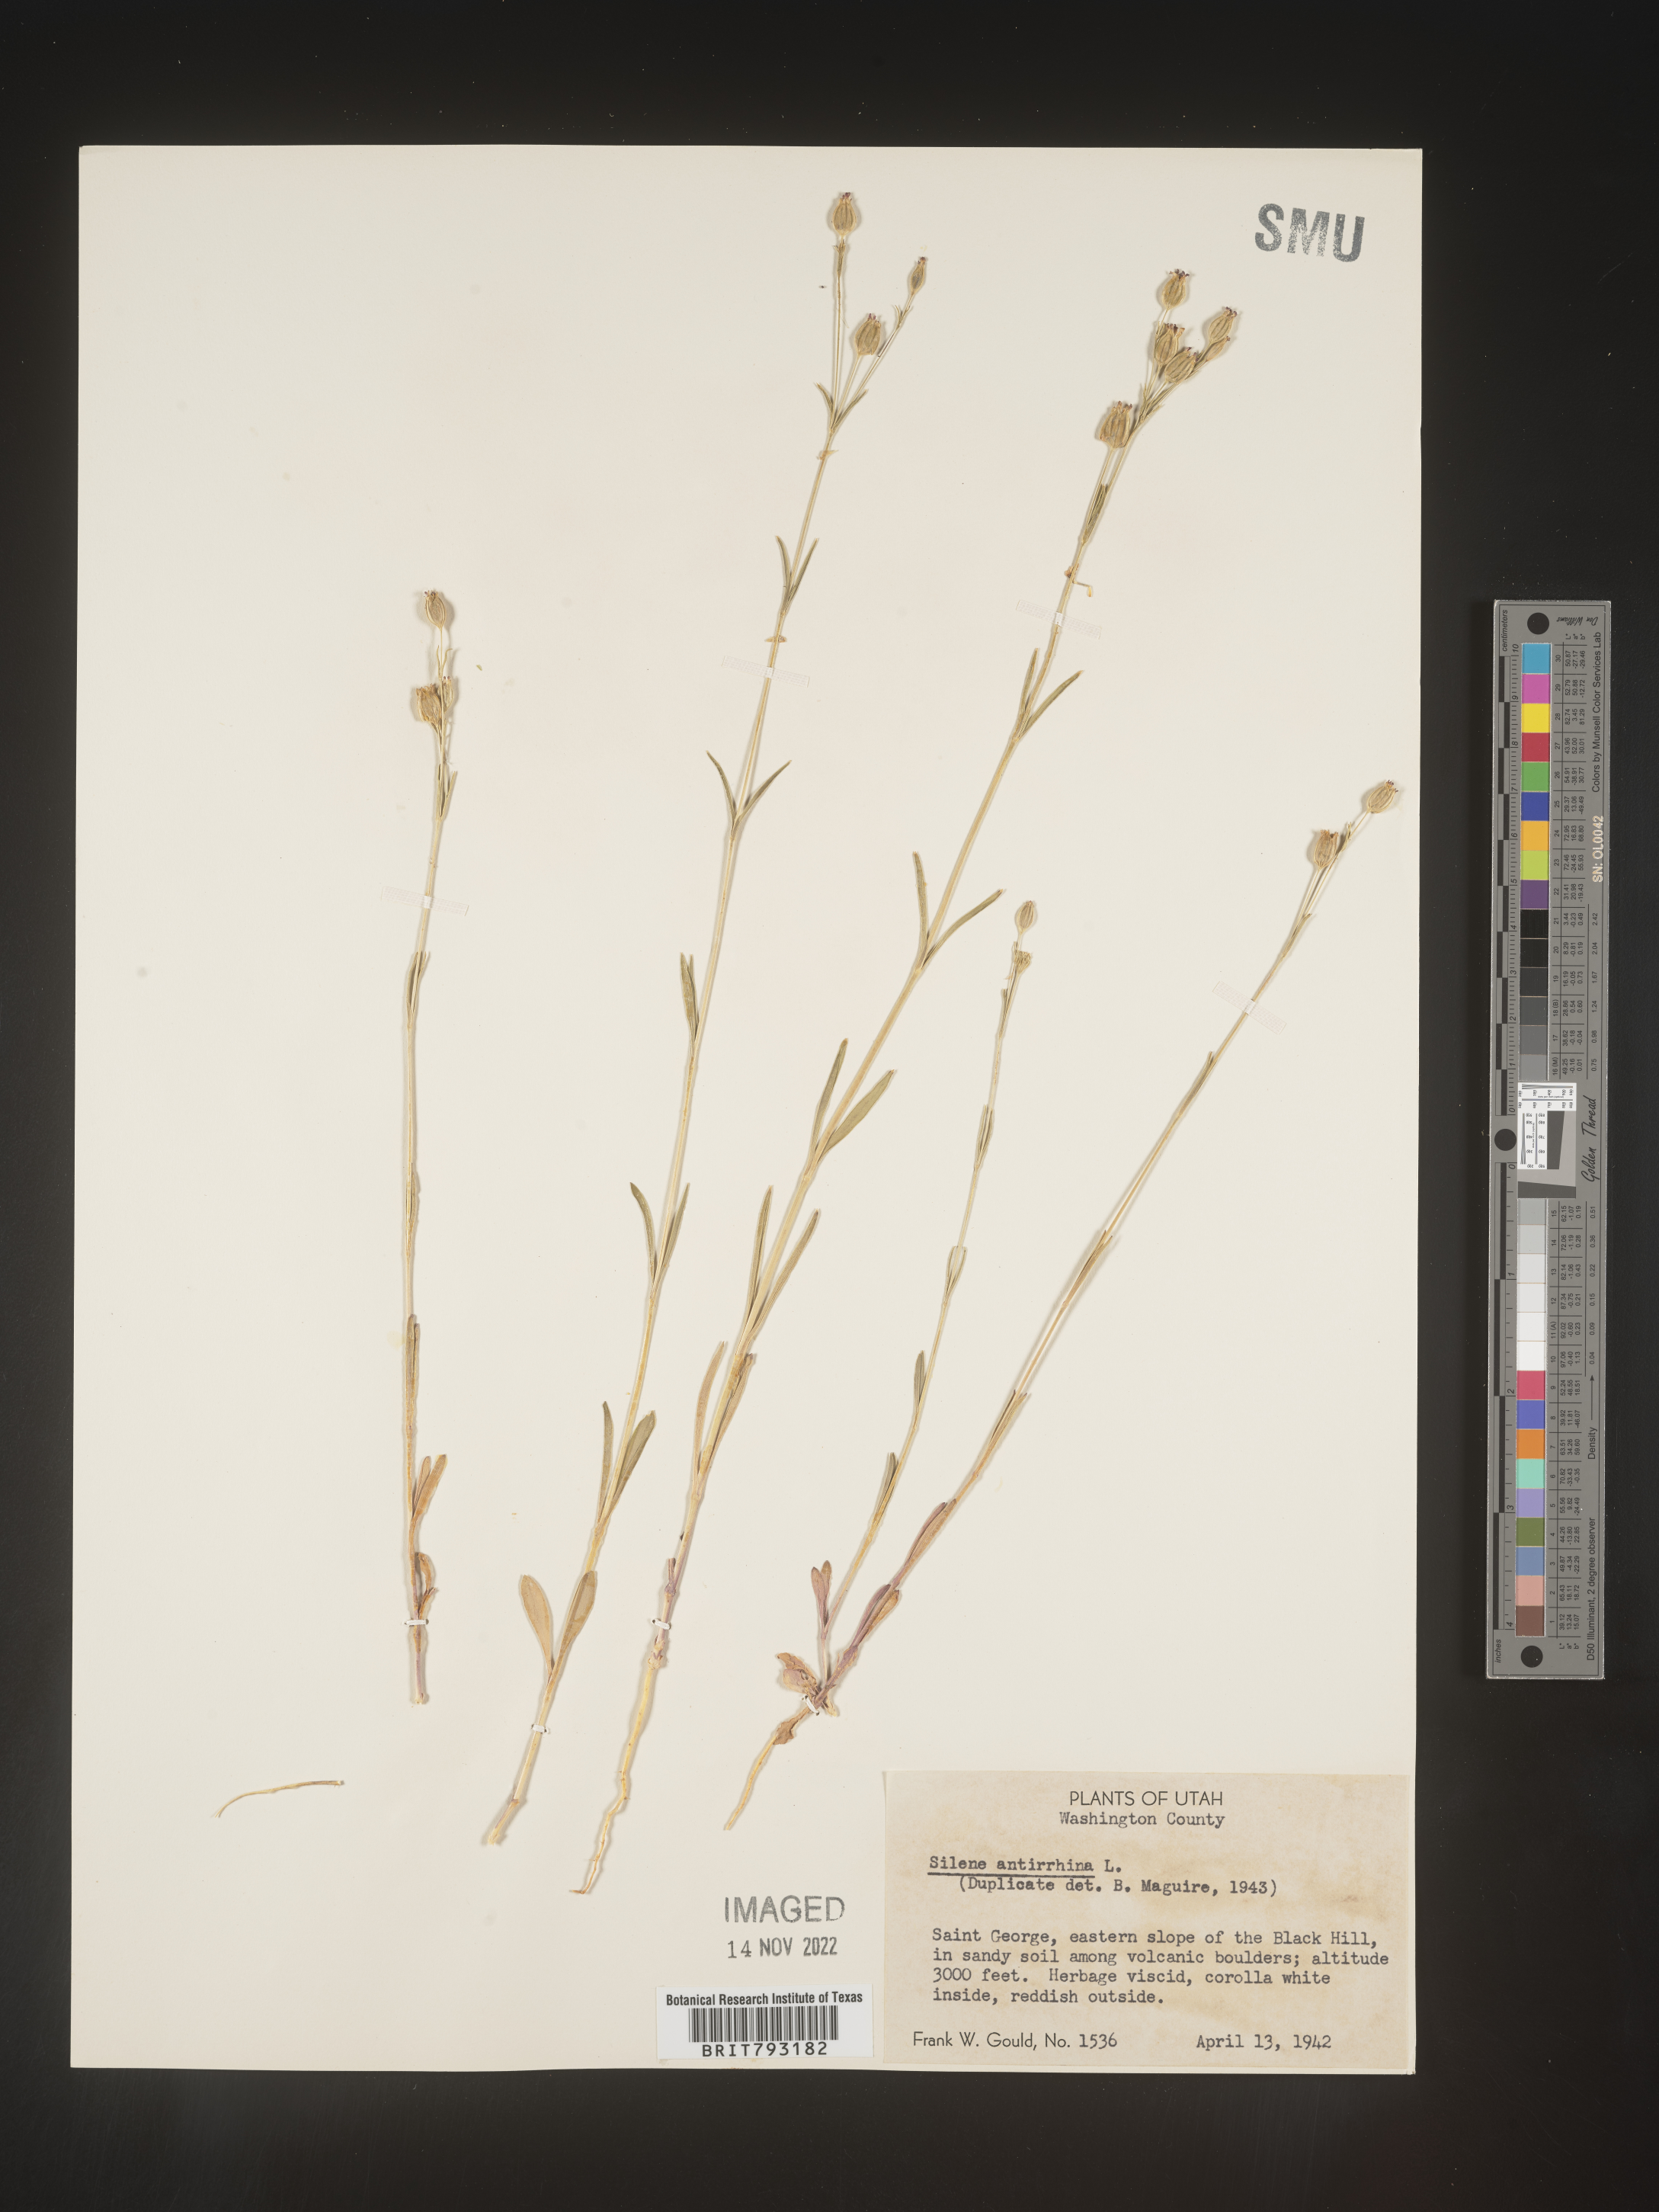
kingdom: Plantae
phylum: Tracheophyta
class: Magnoliopsida
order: Caryophyllales
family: Caryophyllaceae
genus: Silene
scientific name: Silene antirrhina
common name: Sleepy catchfly
